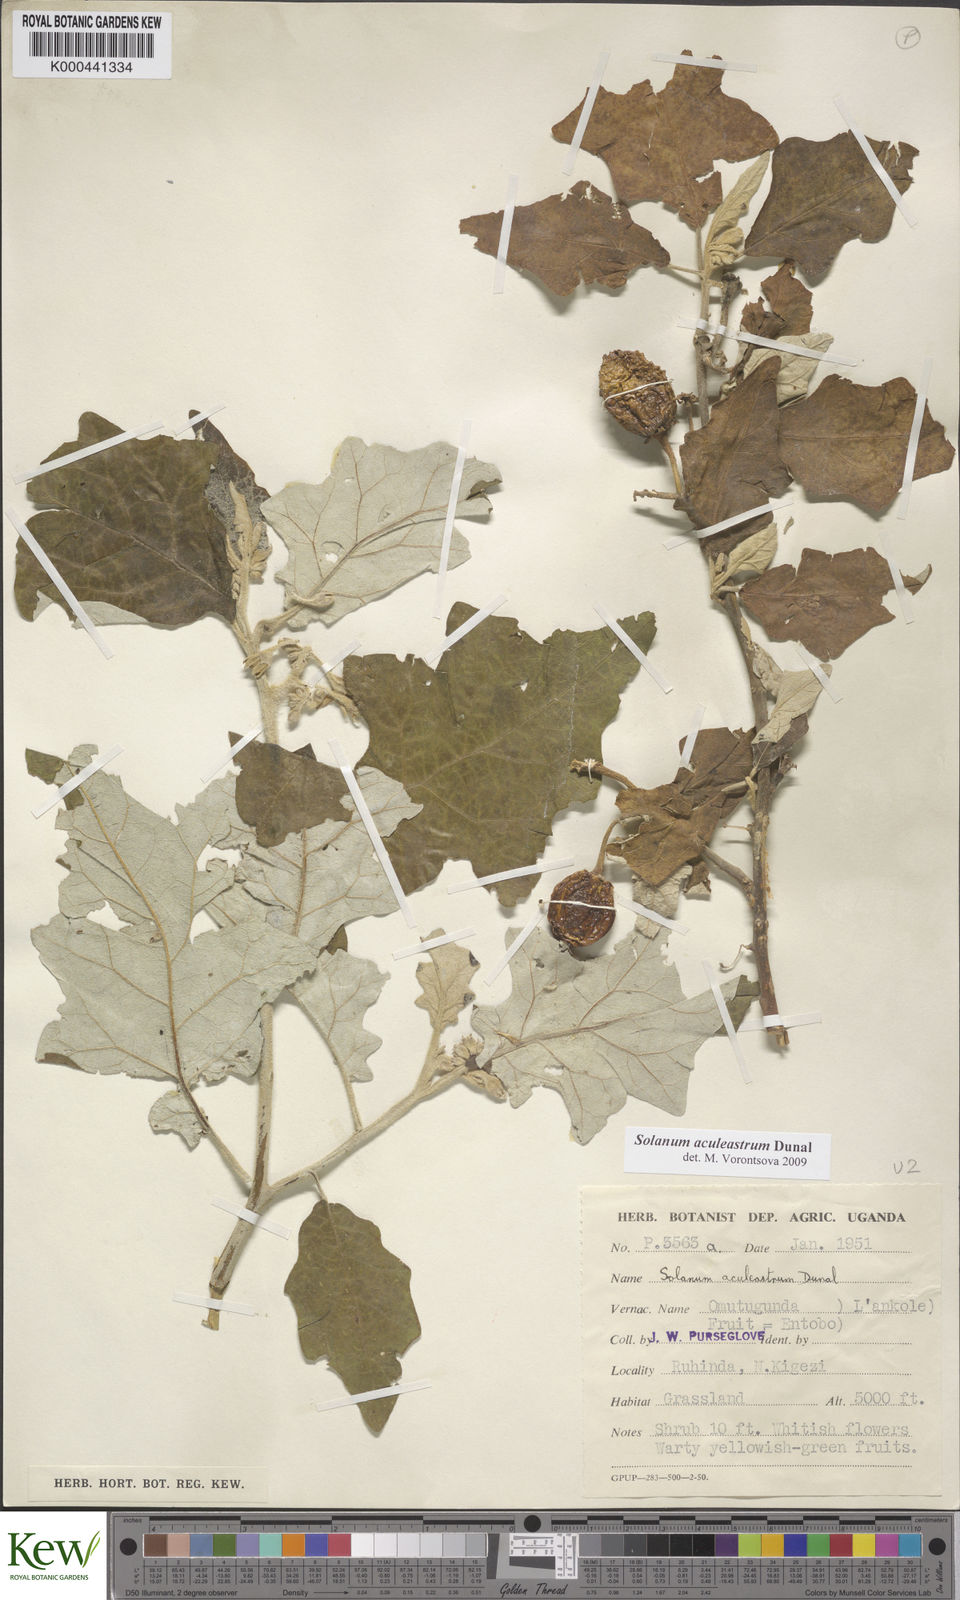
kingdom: Plantae
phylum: Tracheophyta
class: Magnoliopsida
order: Solanales
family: Solanaceae
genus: Solanum
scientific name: Solanum aculeastrum
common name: Goat bitter-apple
